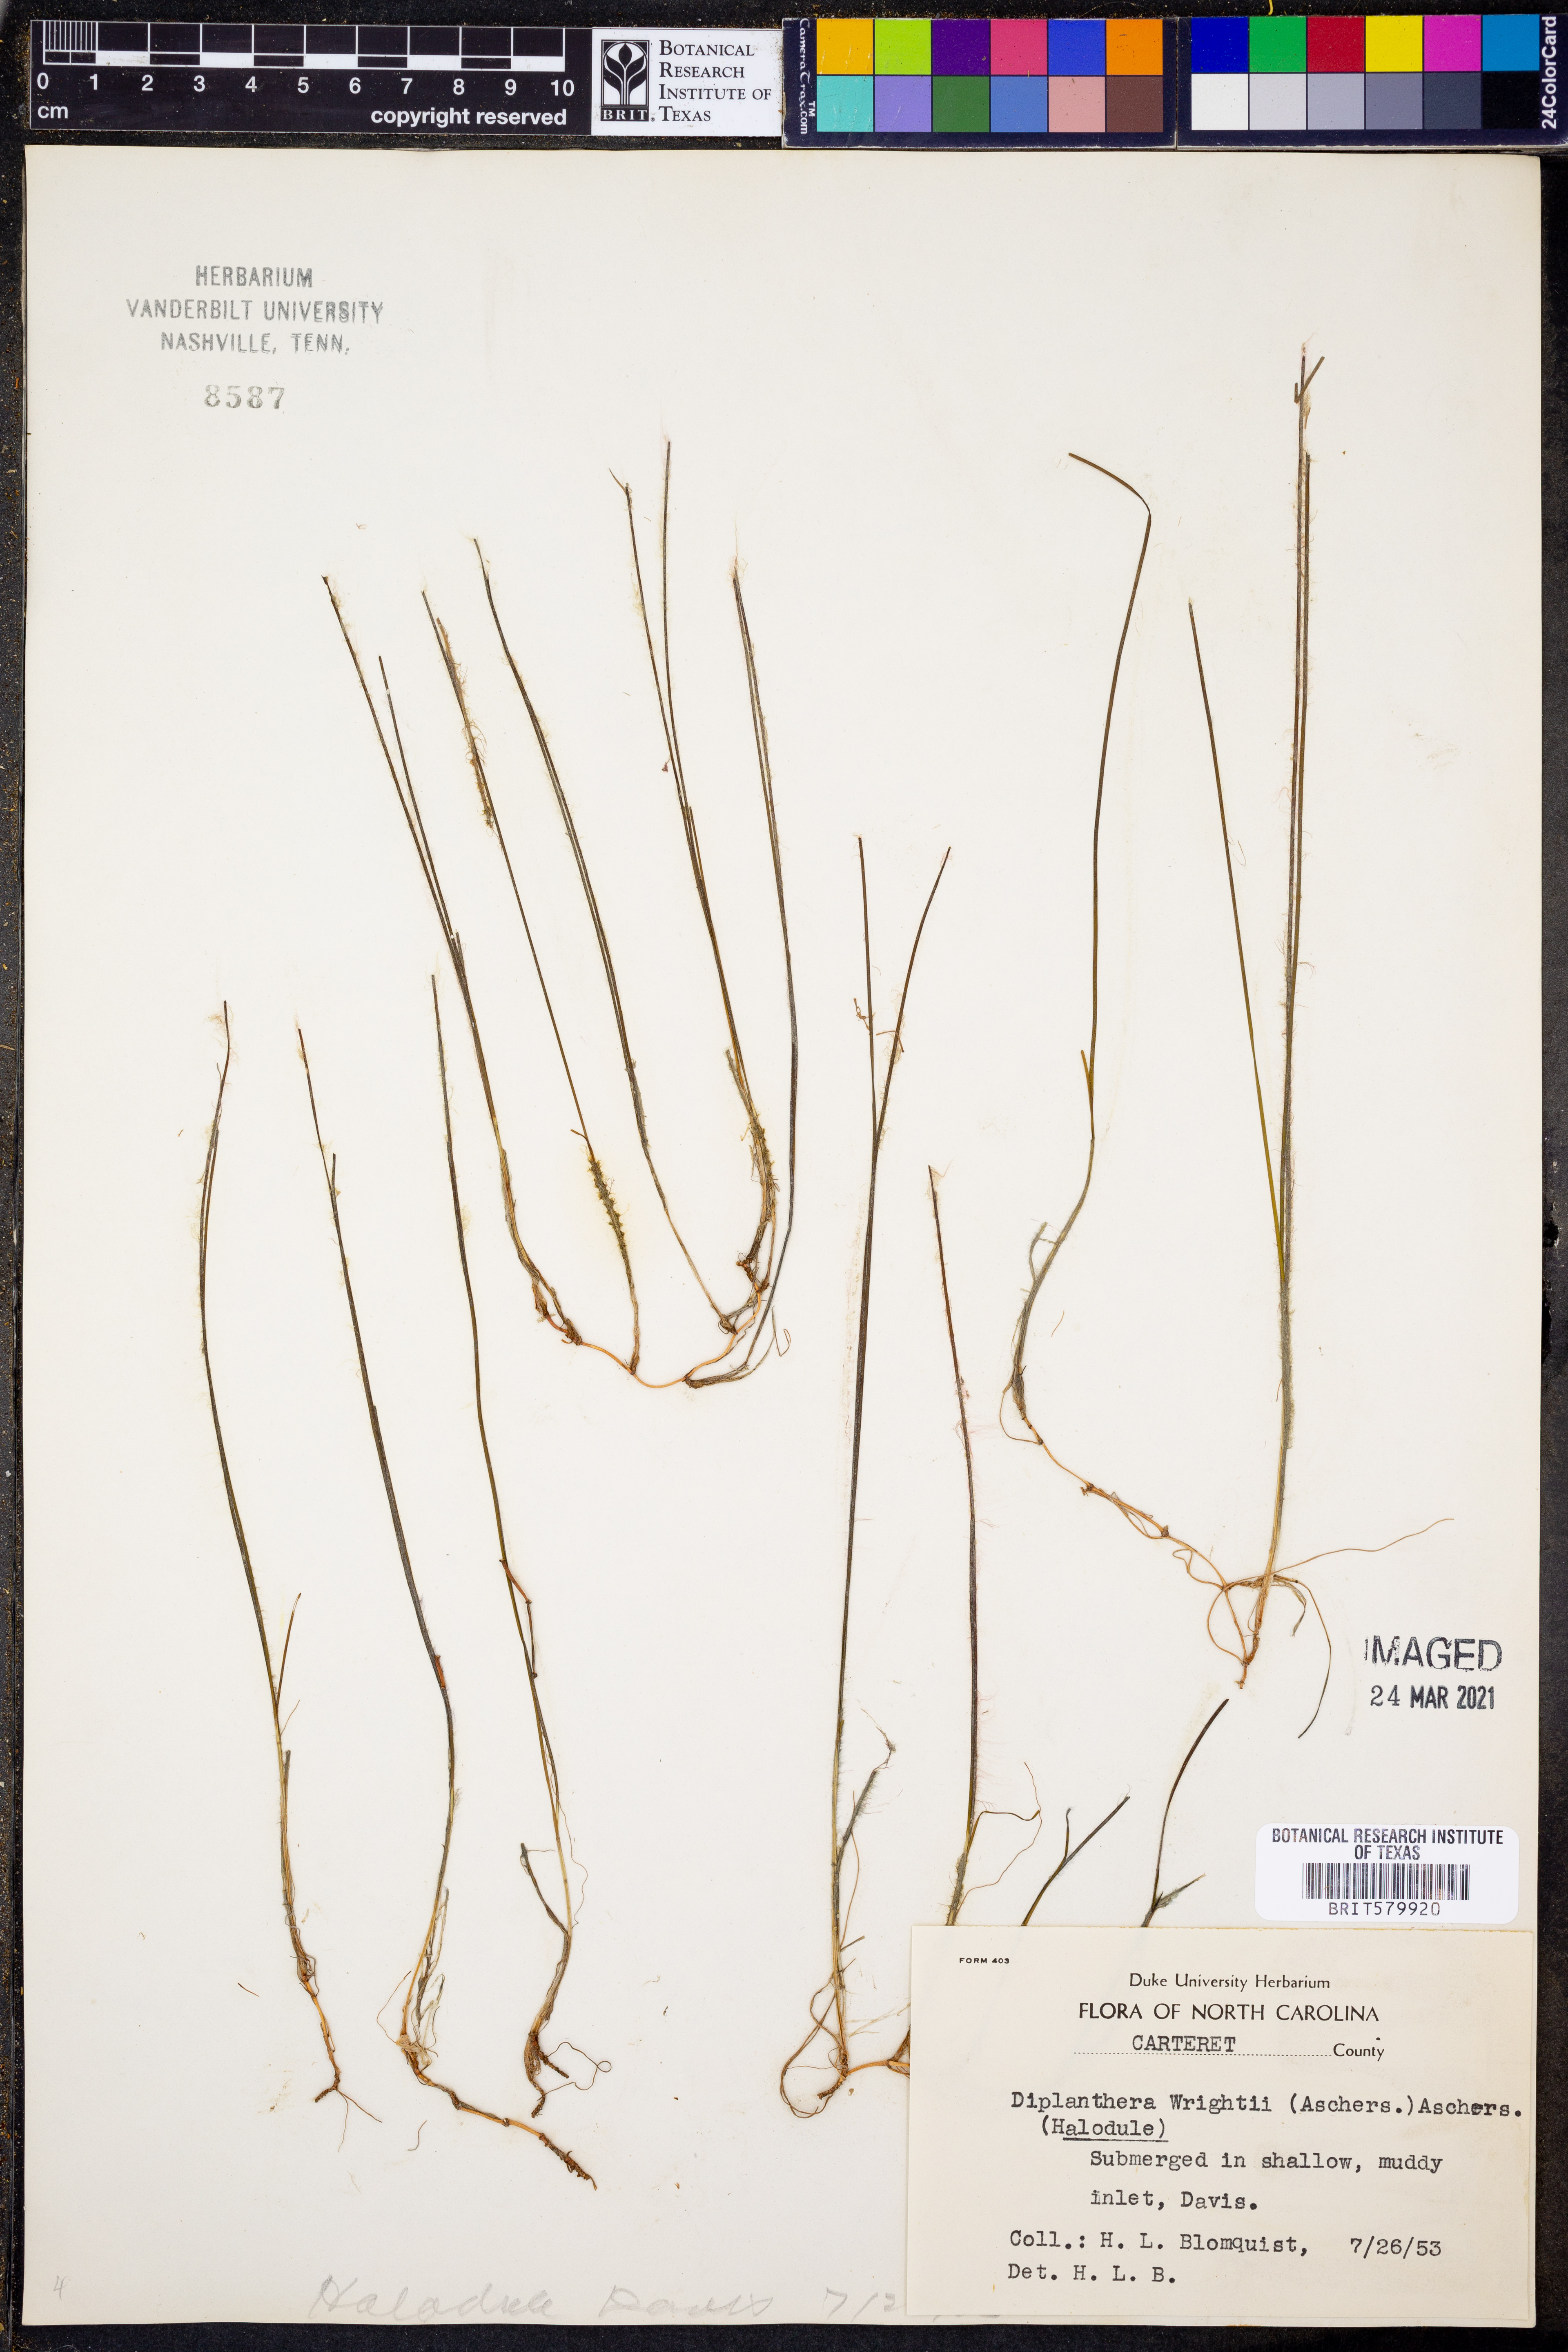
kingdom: Plantae
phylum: Tracheophyta
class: Liliopsida
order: Alismatales
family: Cymodoceaceae
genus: Halodule
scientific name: Halodule wrightii
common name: Shoalgrass
